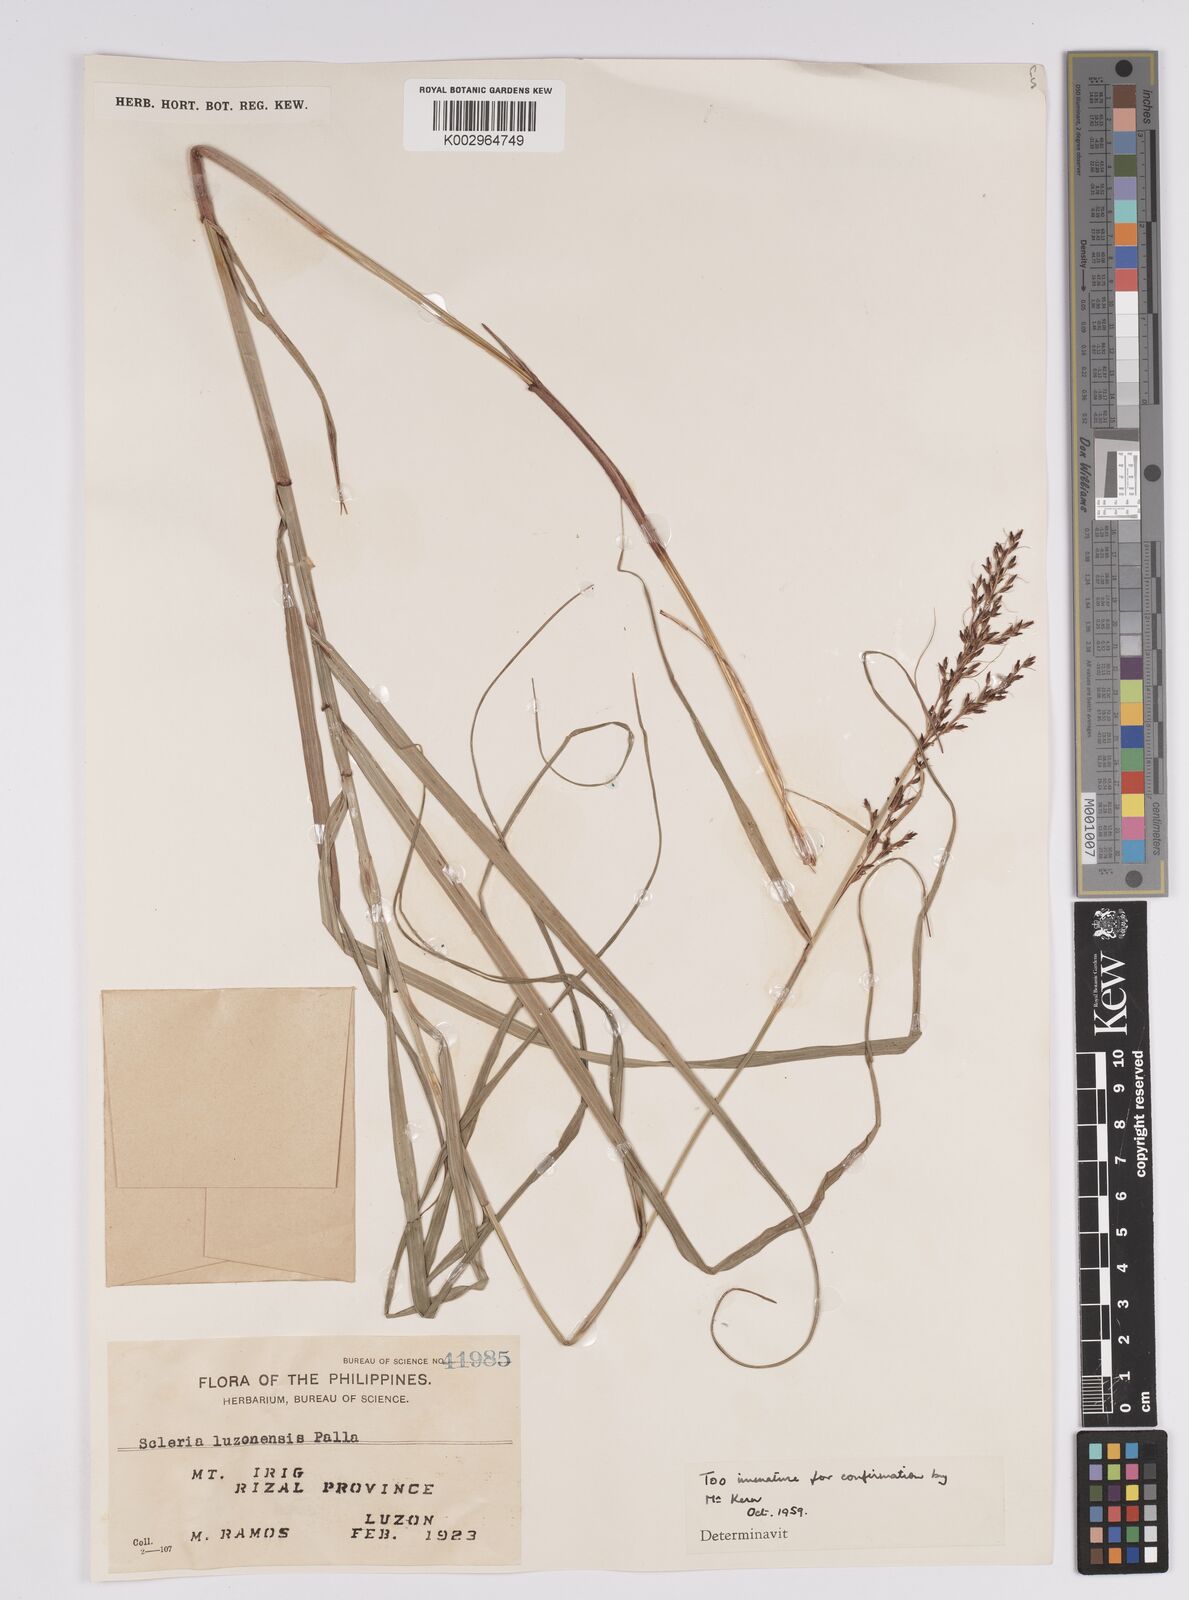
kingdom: Plantae
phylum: Tracheophyta
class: Liliopsida
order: Poales
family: Cyperaceae
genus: Scleria
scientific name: Scleria terrestris
